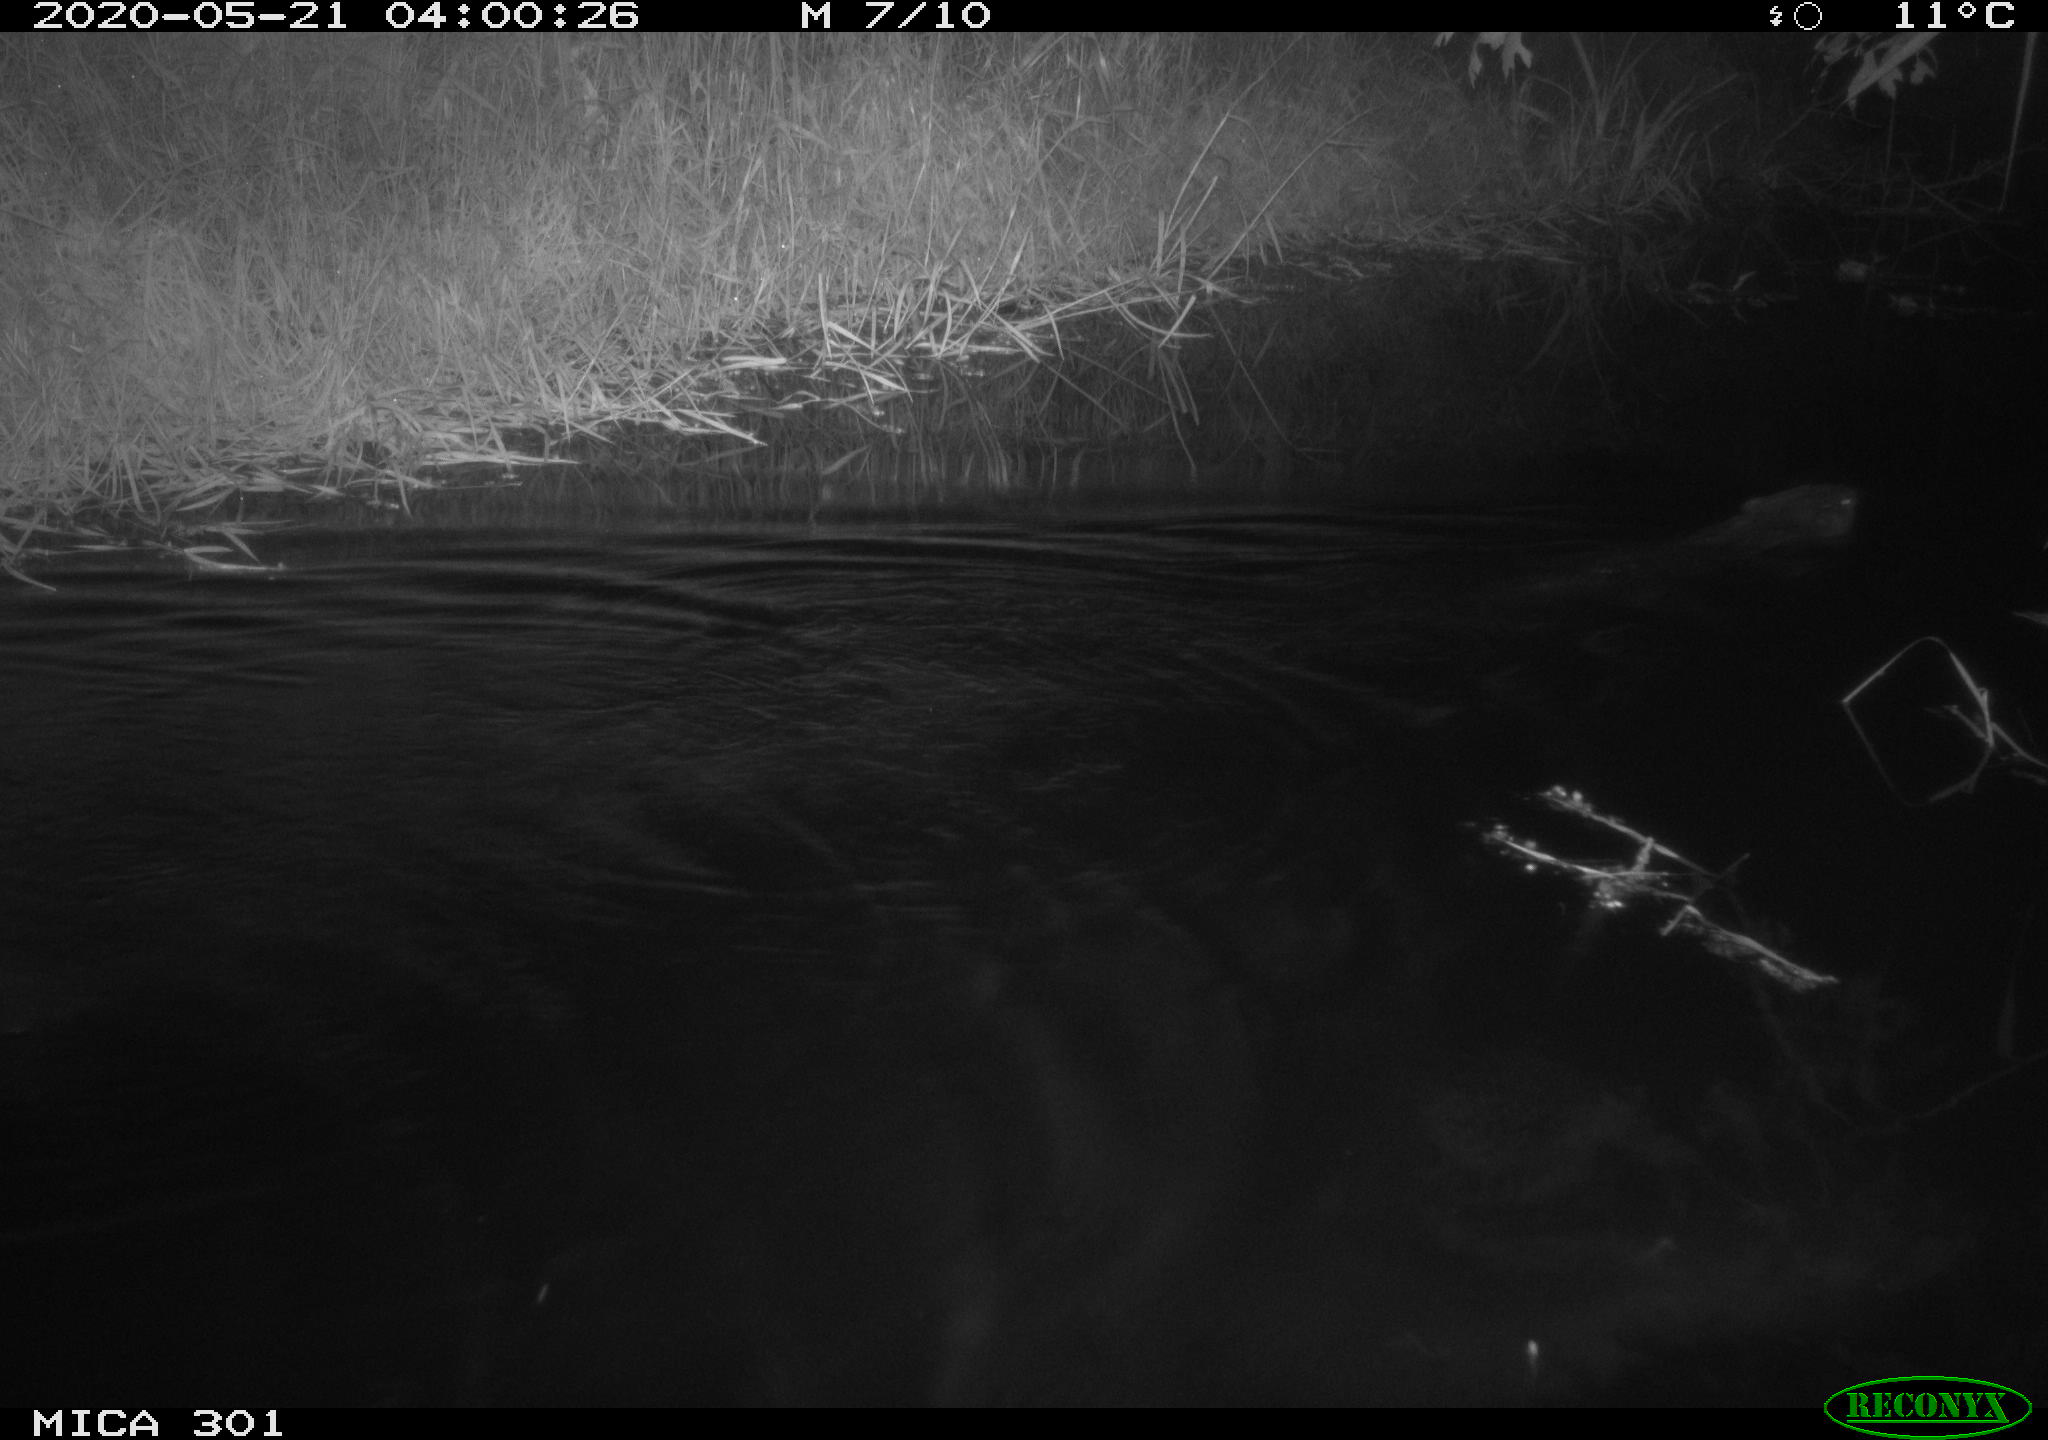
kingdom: Animalia
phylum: Chordata
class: Mammalia
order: Rodentia
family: Castoridae
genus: Castor
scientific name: Castor fiber
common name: Eurasian beaver
